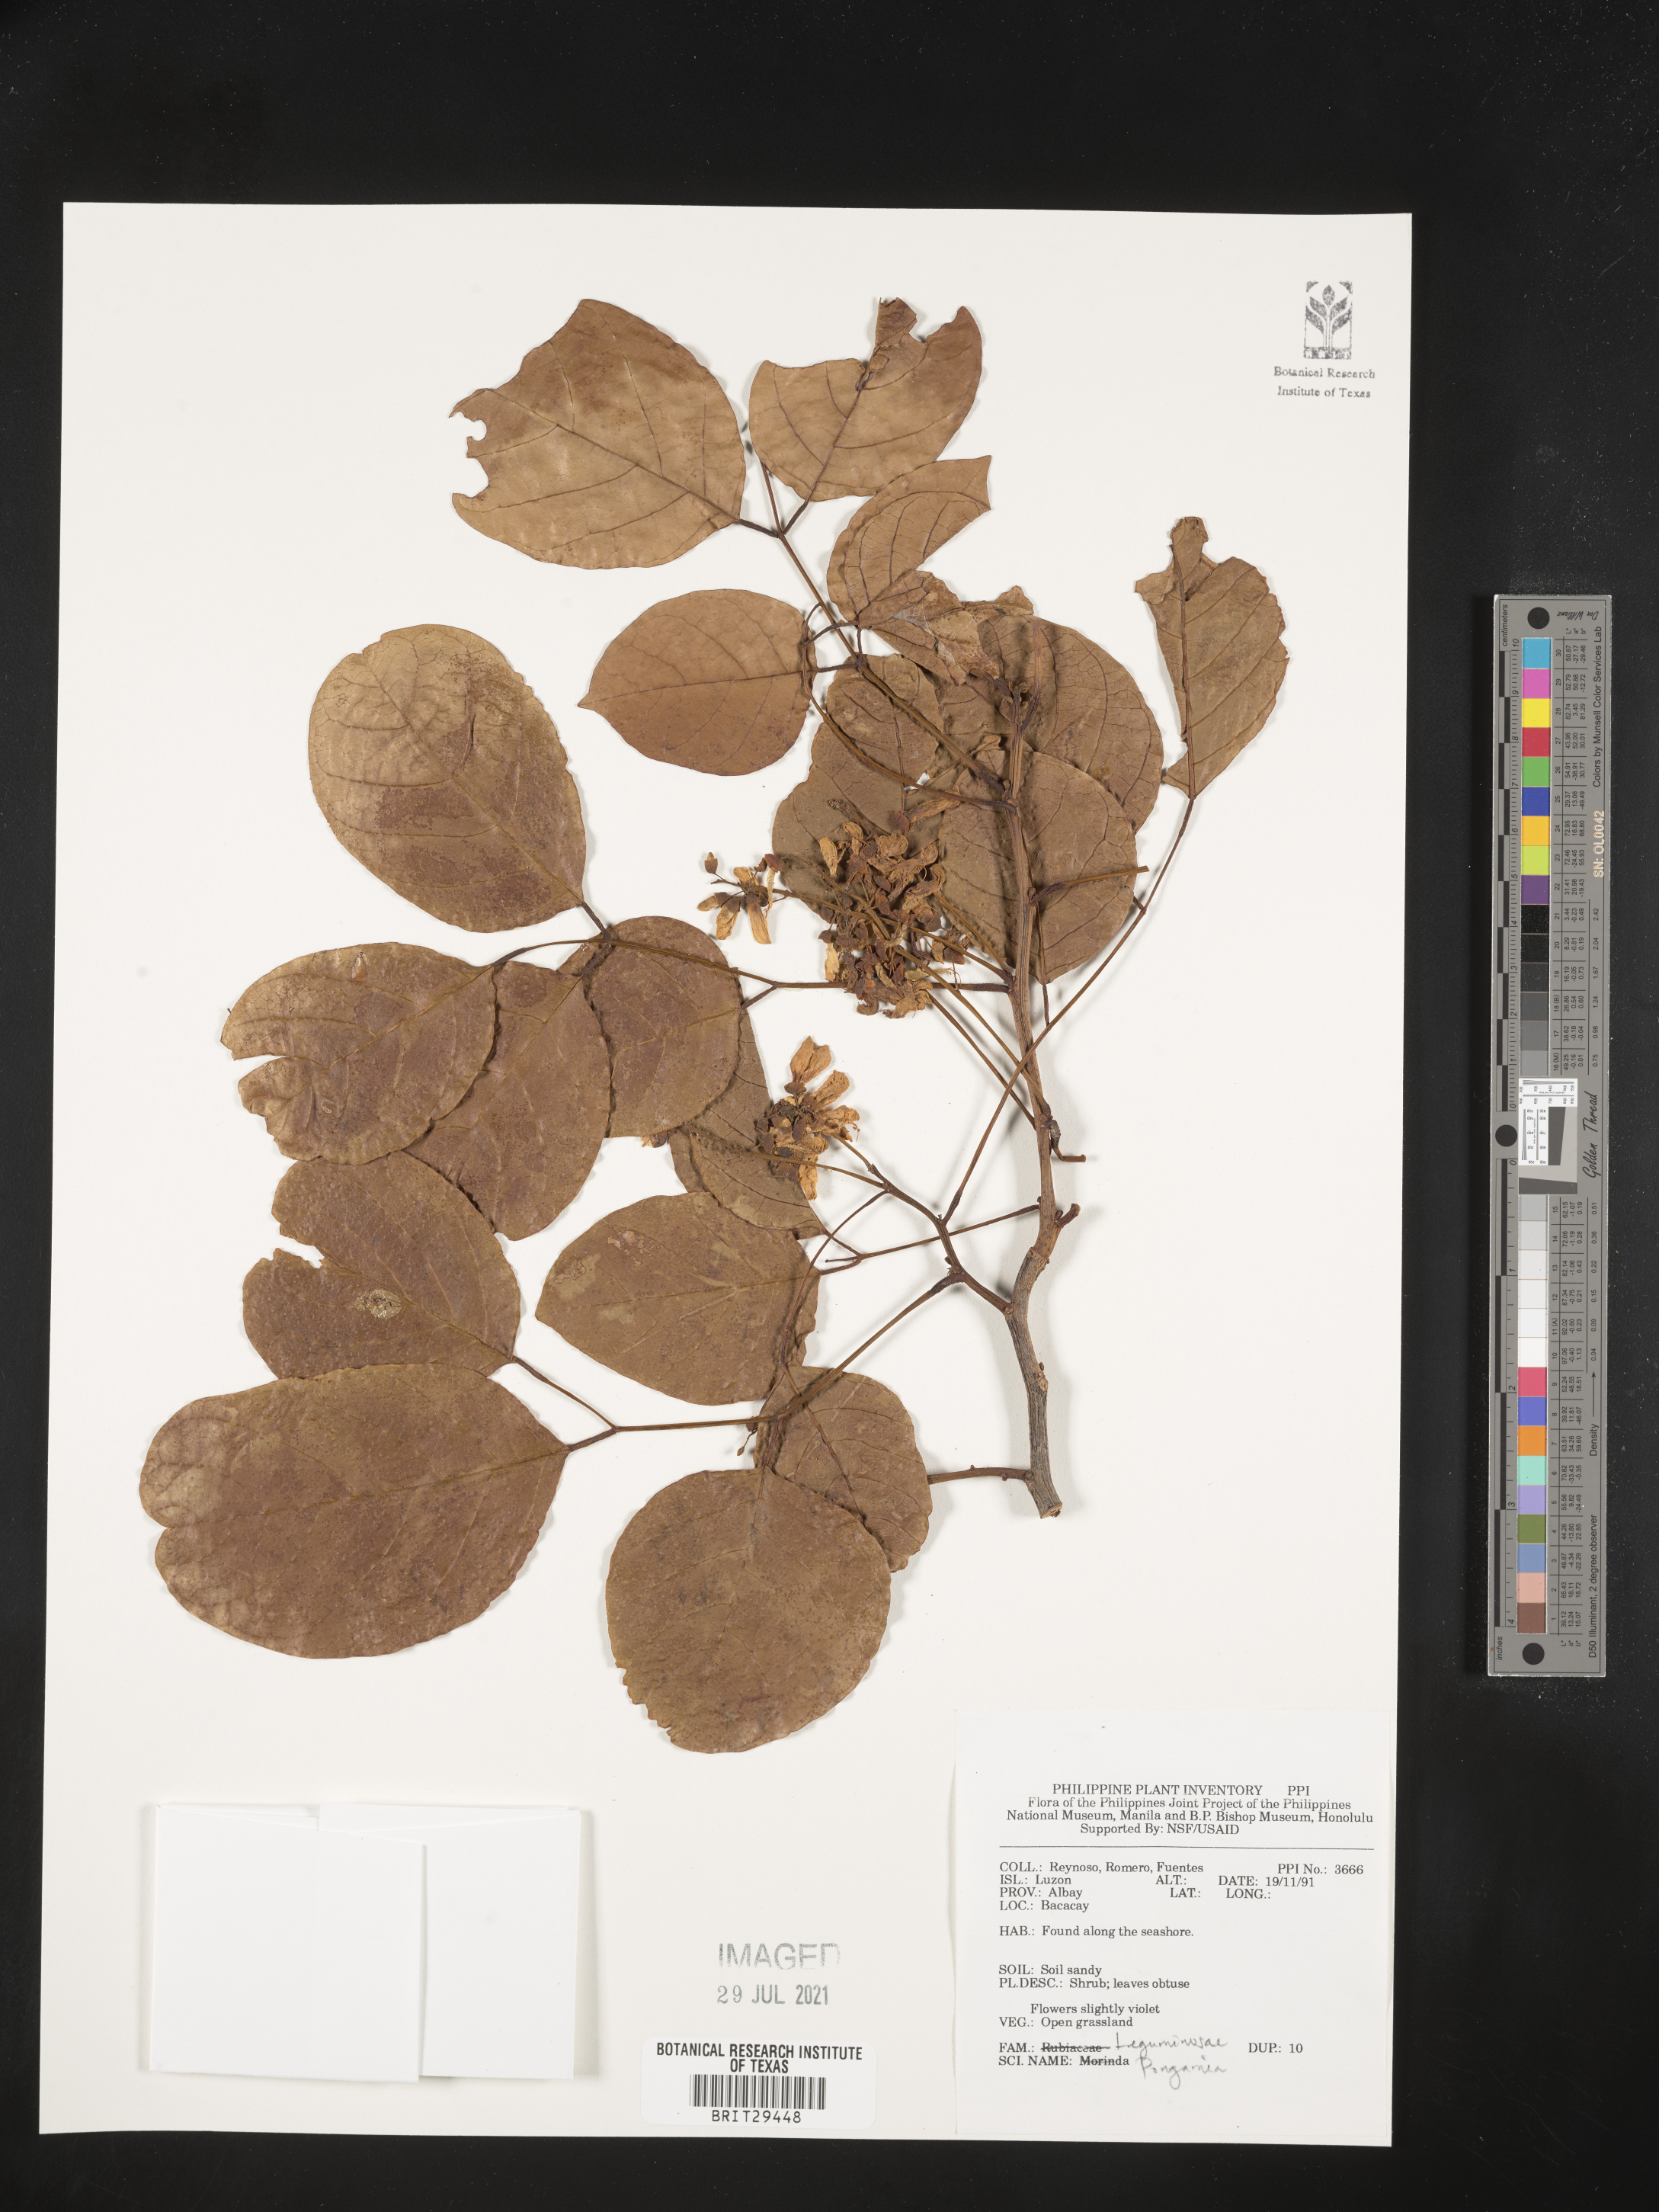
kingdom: Plantae
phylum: Tracheophyta
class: Magnoliopsida
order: Fabales
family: Fabaceae
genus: Pongamia
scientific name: Pongamia
